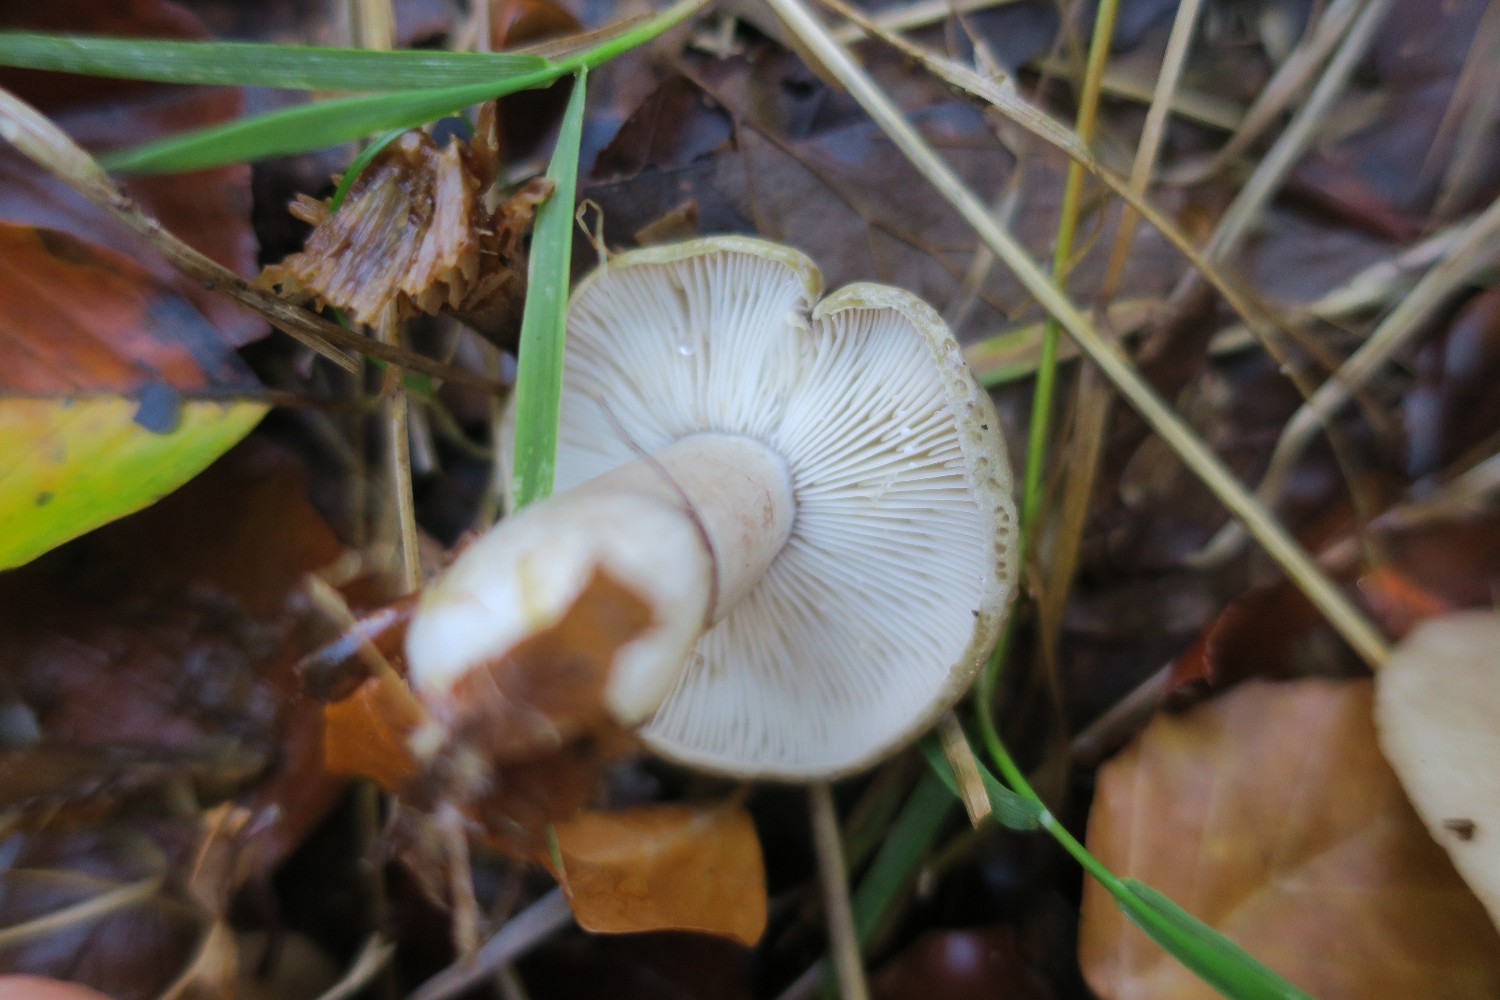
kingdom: Fungi
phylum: Basidiomycota
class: Agaricomycetes
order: Russulales
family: Russulaceae
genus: Lactarius
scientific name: Lactarius blennius
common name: dråbeplettet mælkehat
